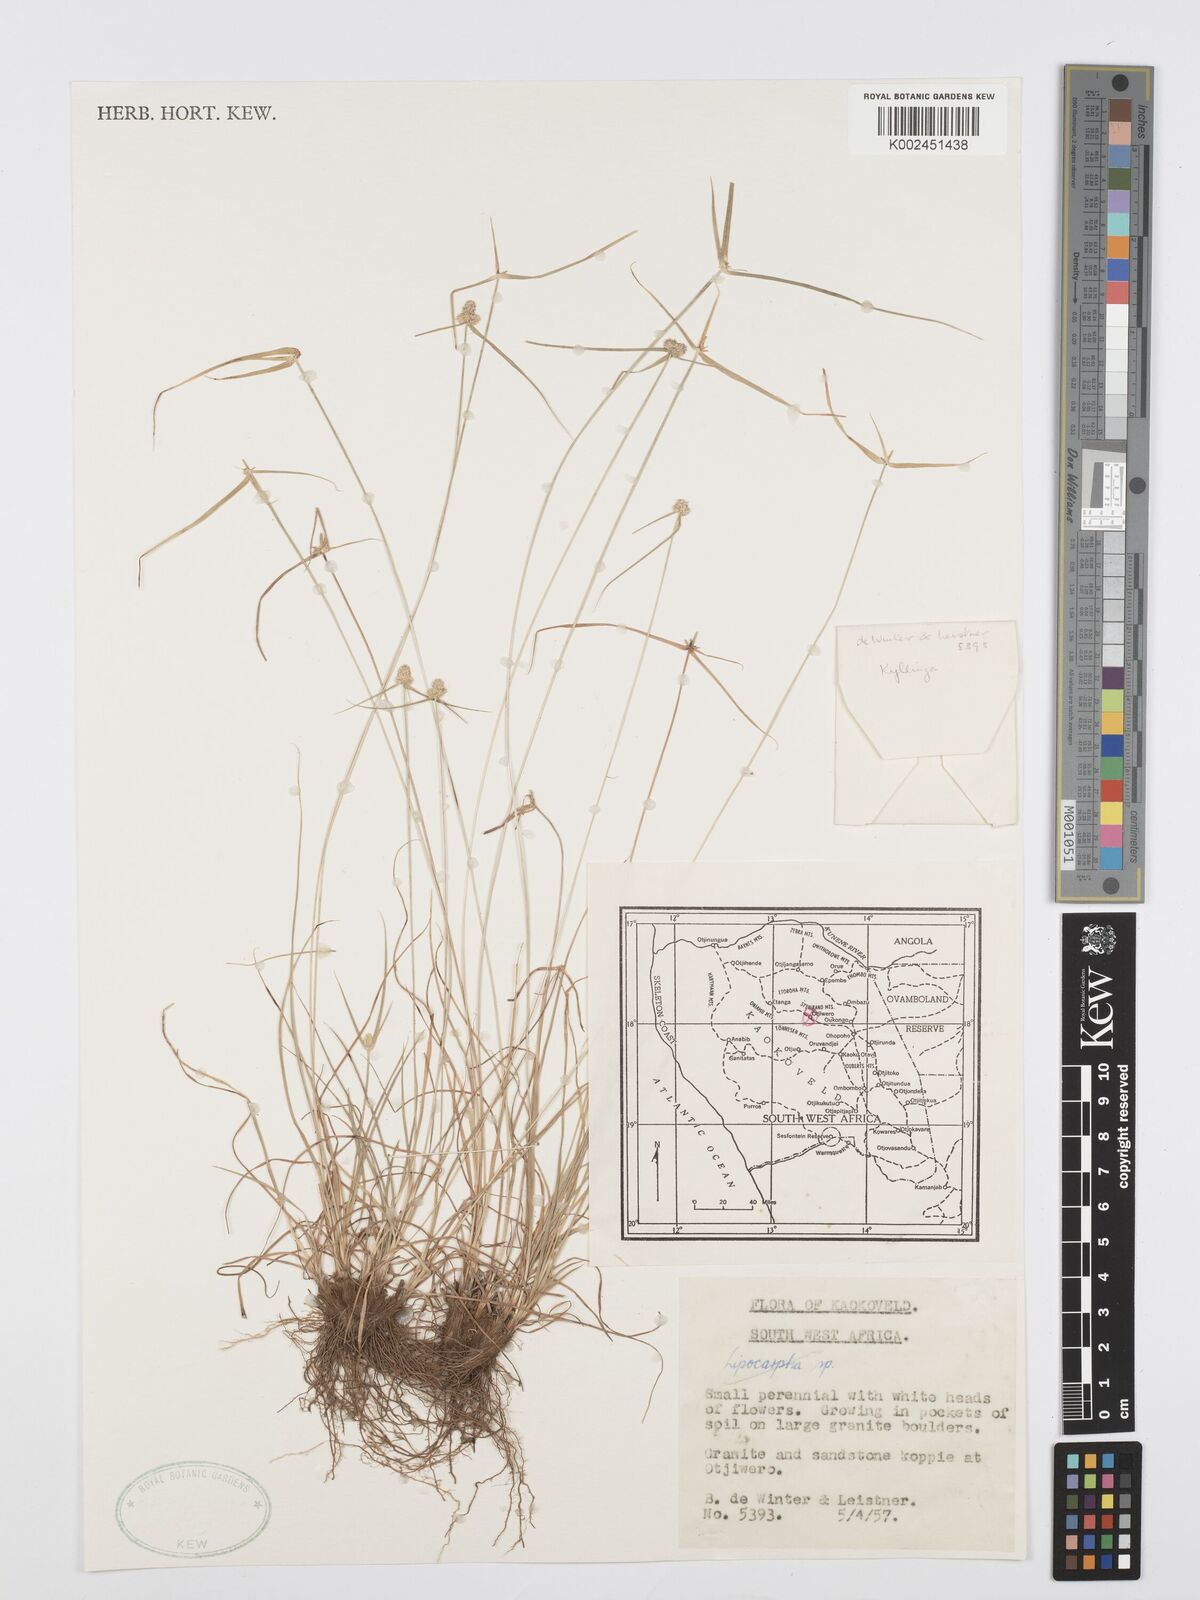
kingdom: Plantae
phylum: Tracheophyta
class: Liliopsida
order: Poales
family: Cyperaceae
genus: Cyperus
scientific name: Cyperus
